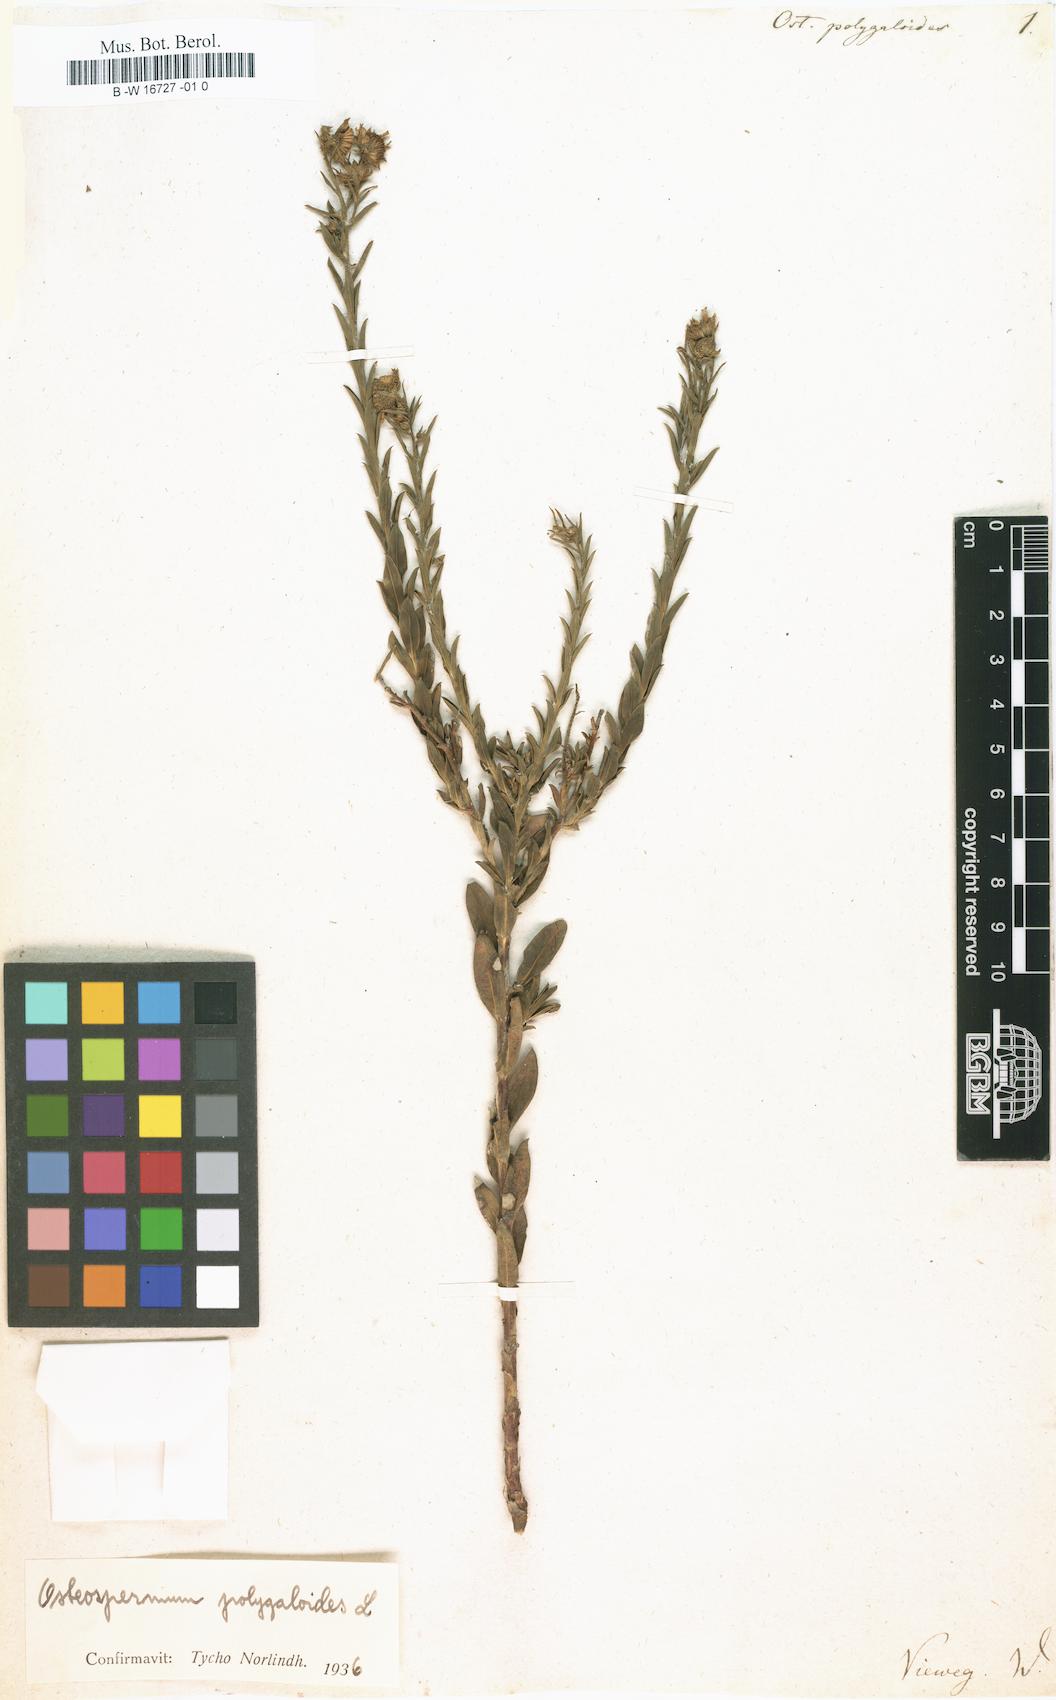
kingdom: Plantae
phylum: Tracheophyta
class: Magnoliopsida
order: Asterales
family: Asteraceae
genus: Osteospermum
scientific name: Osteospermum polygaloides
